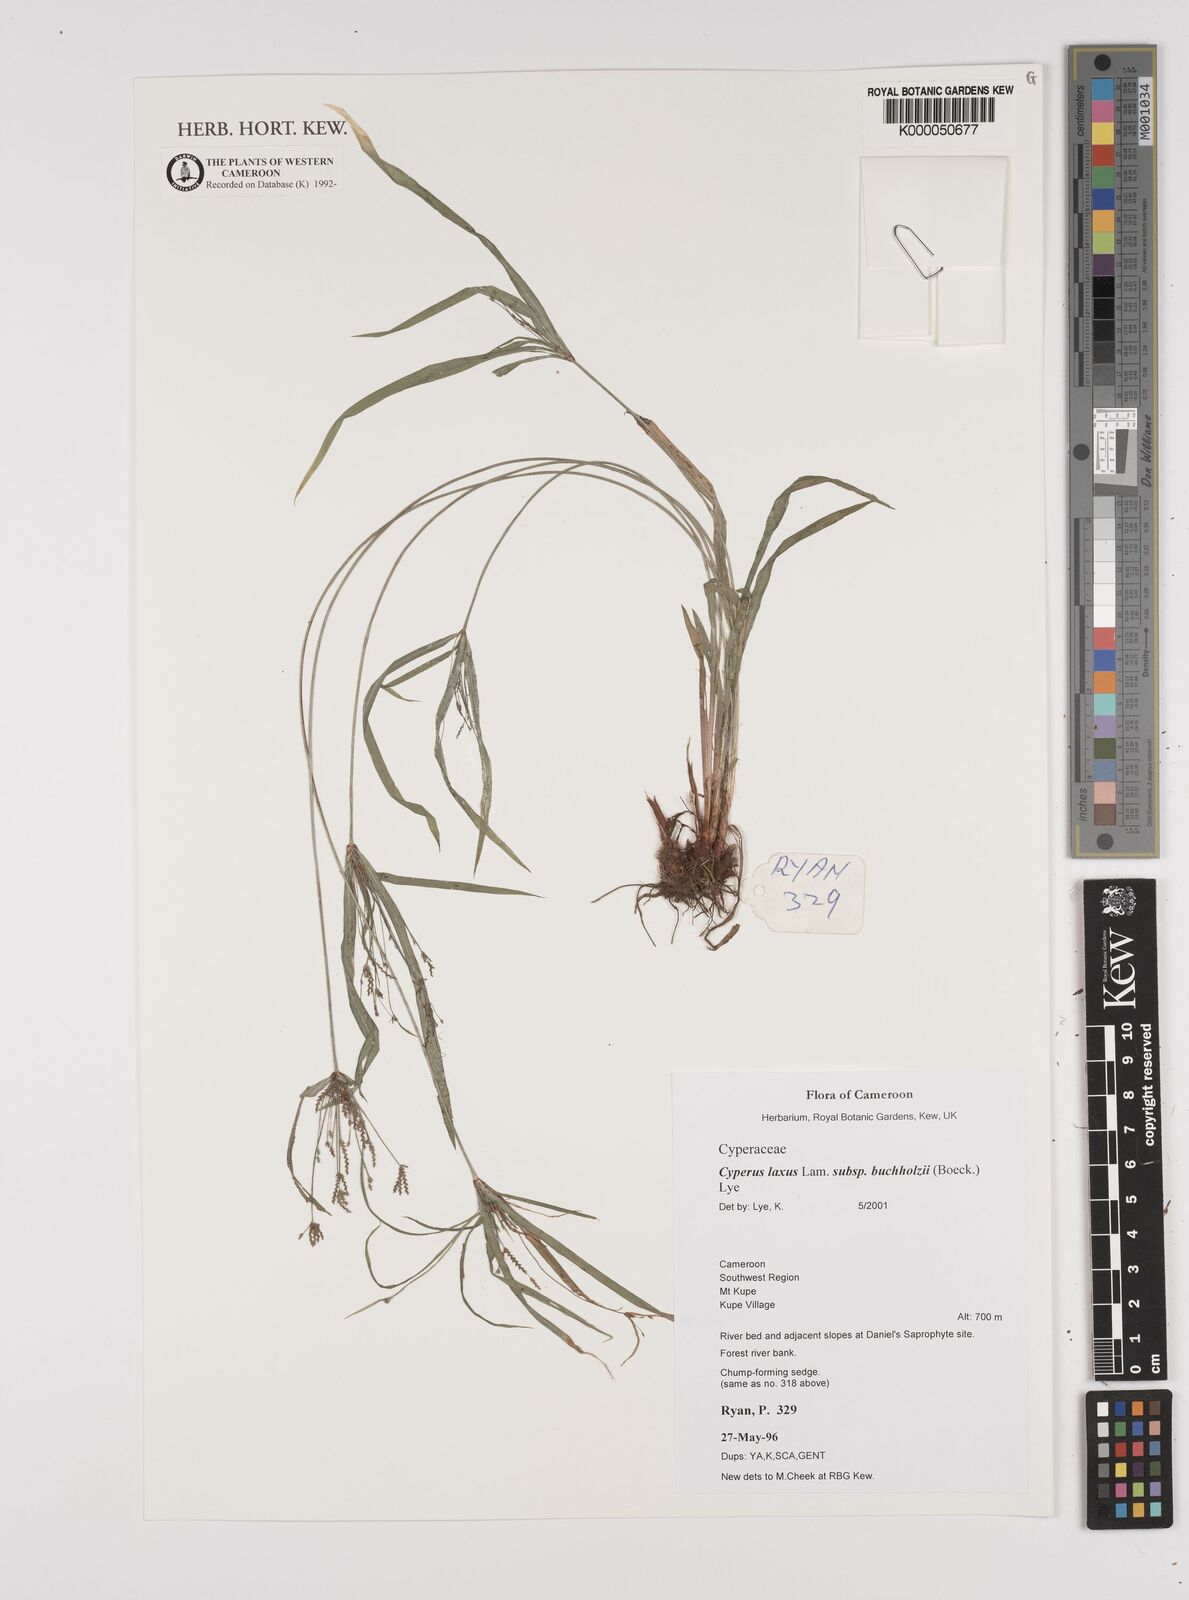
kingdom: Plantae
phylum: Tracheophyta
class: Liliopsida
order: Poales
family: Cyperaceae
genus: Cyperus
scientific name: Cyperus buchholzii
